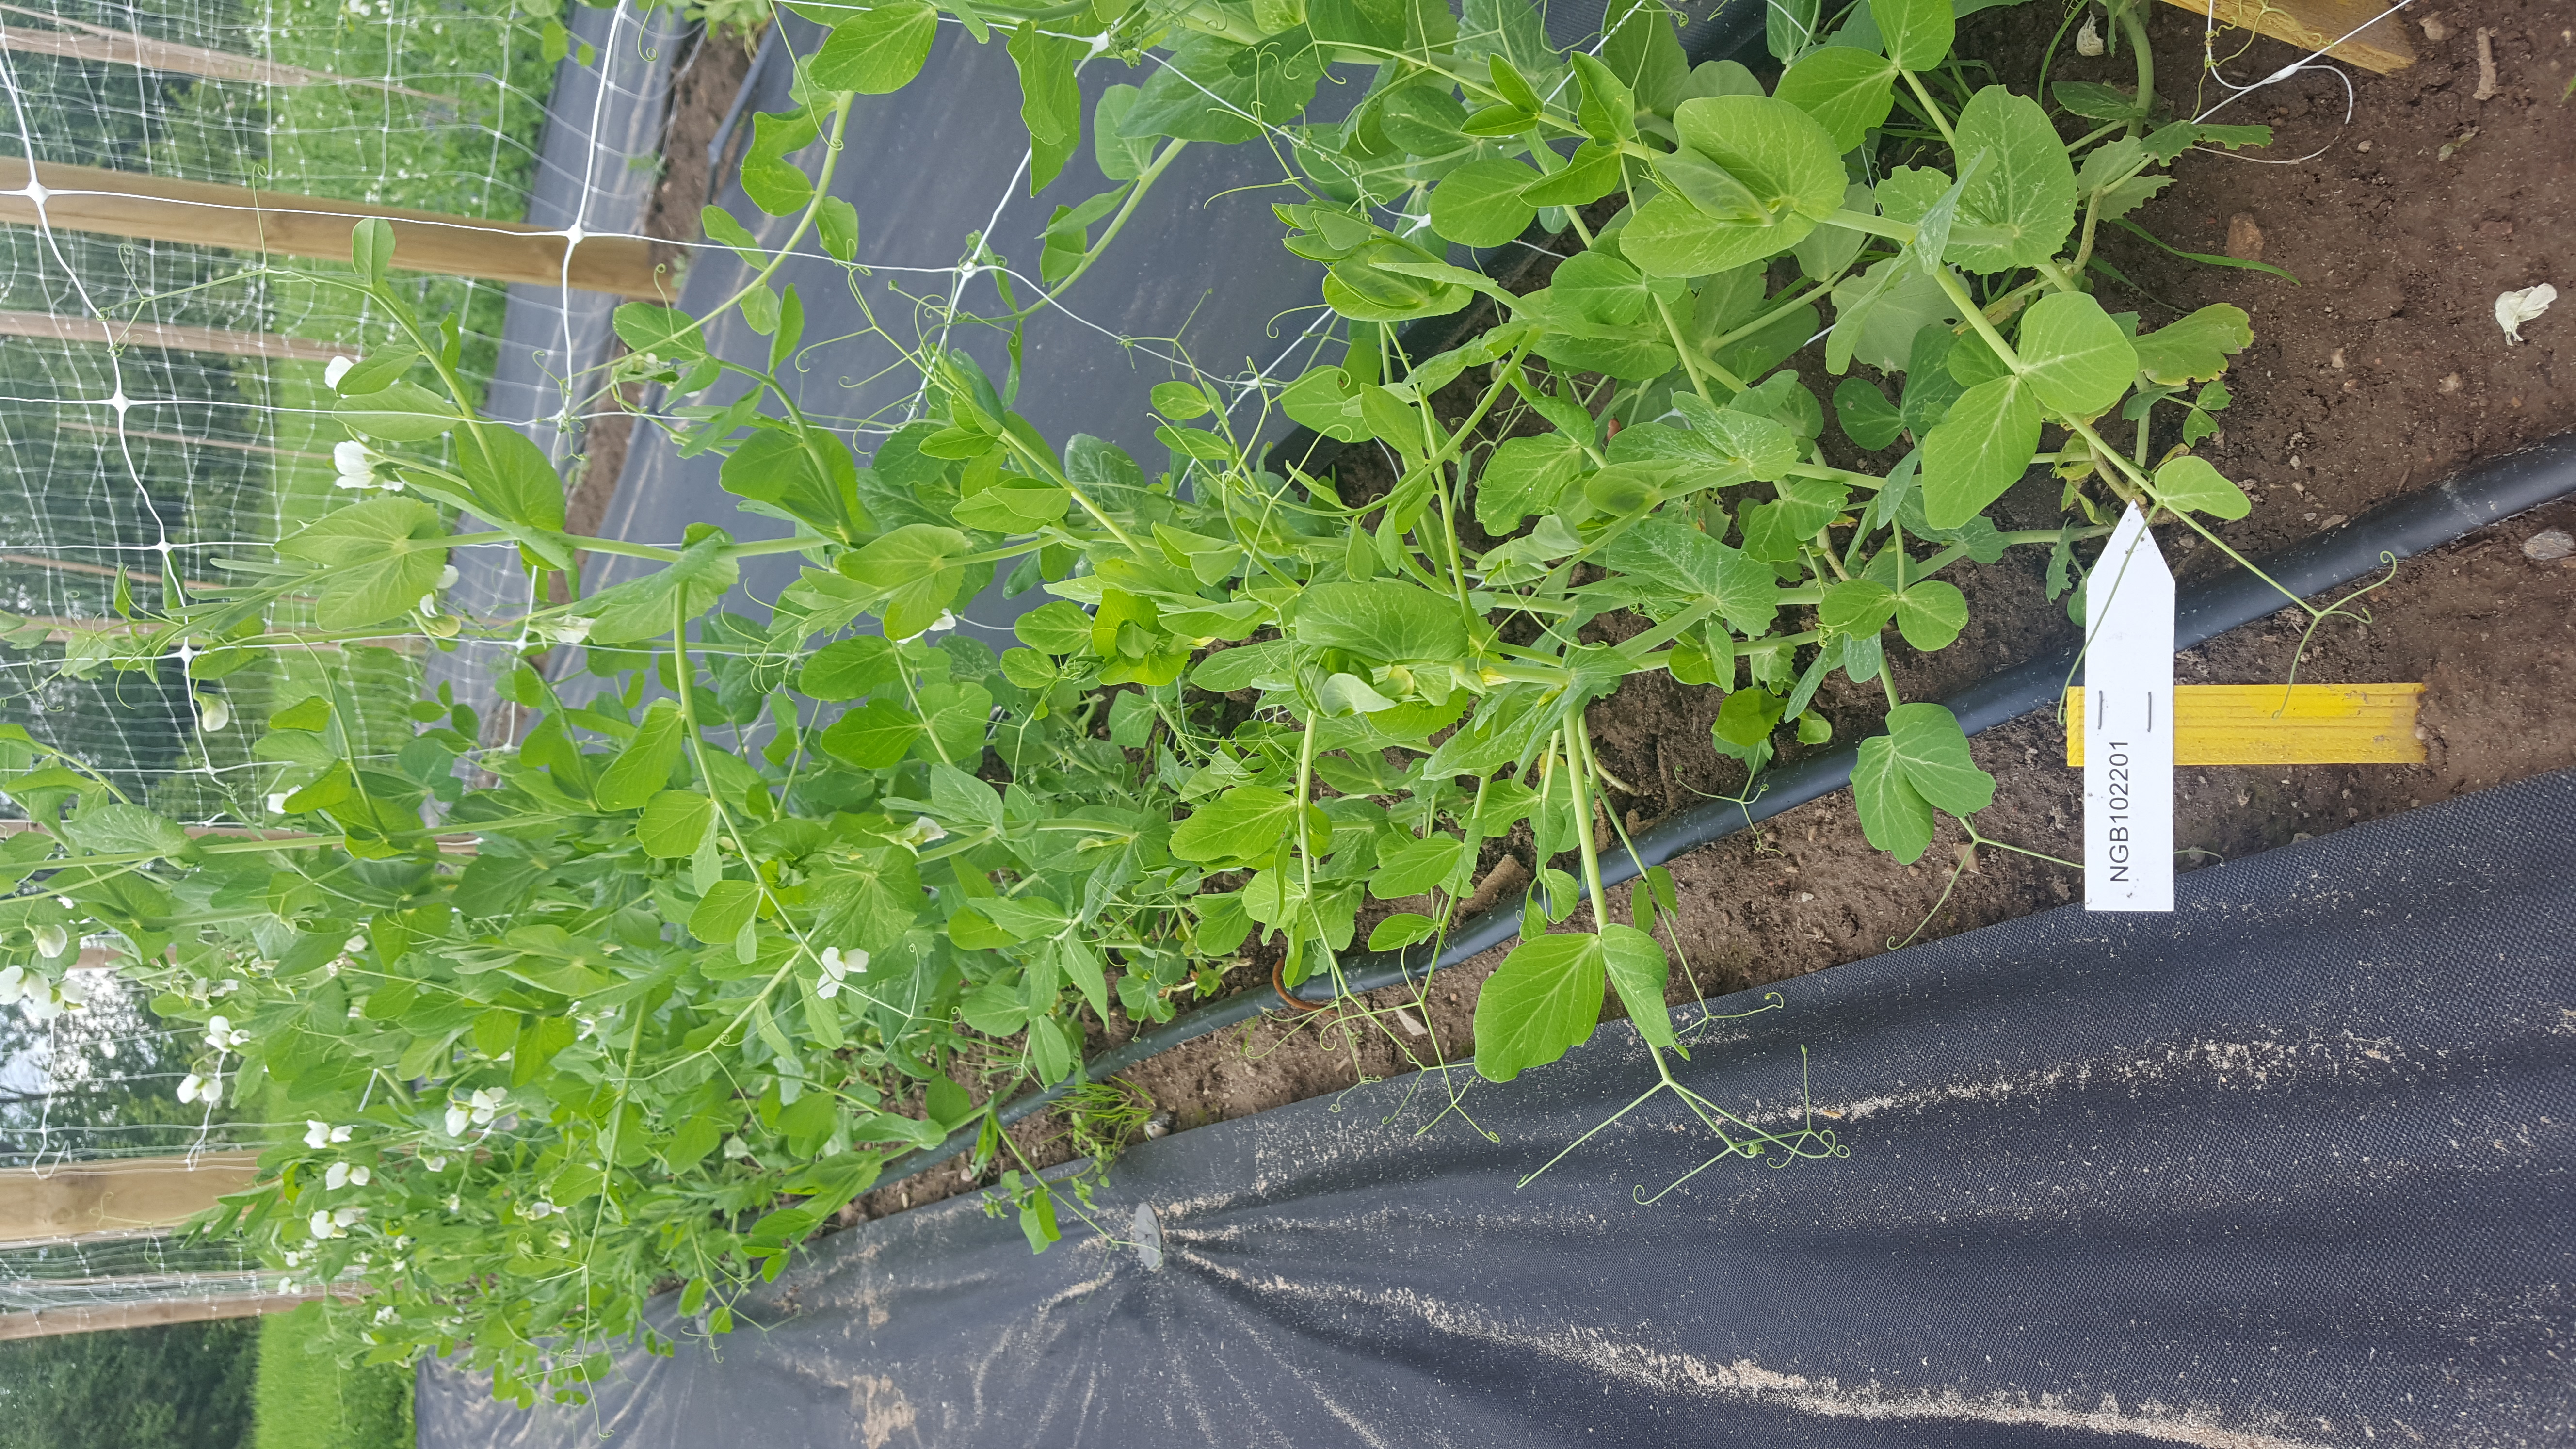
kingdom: Plantae
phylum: Tracheophyta
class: Magnoliopsida
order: Fabales
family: Fabaceae
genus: Lathyrus
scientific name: Lathyrus oleraceus
